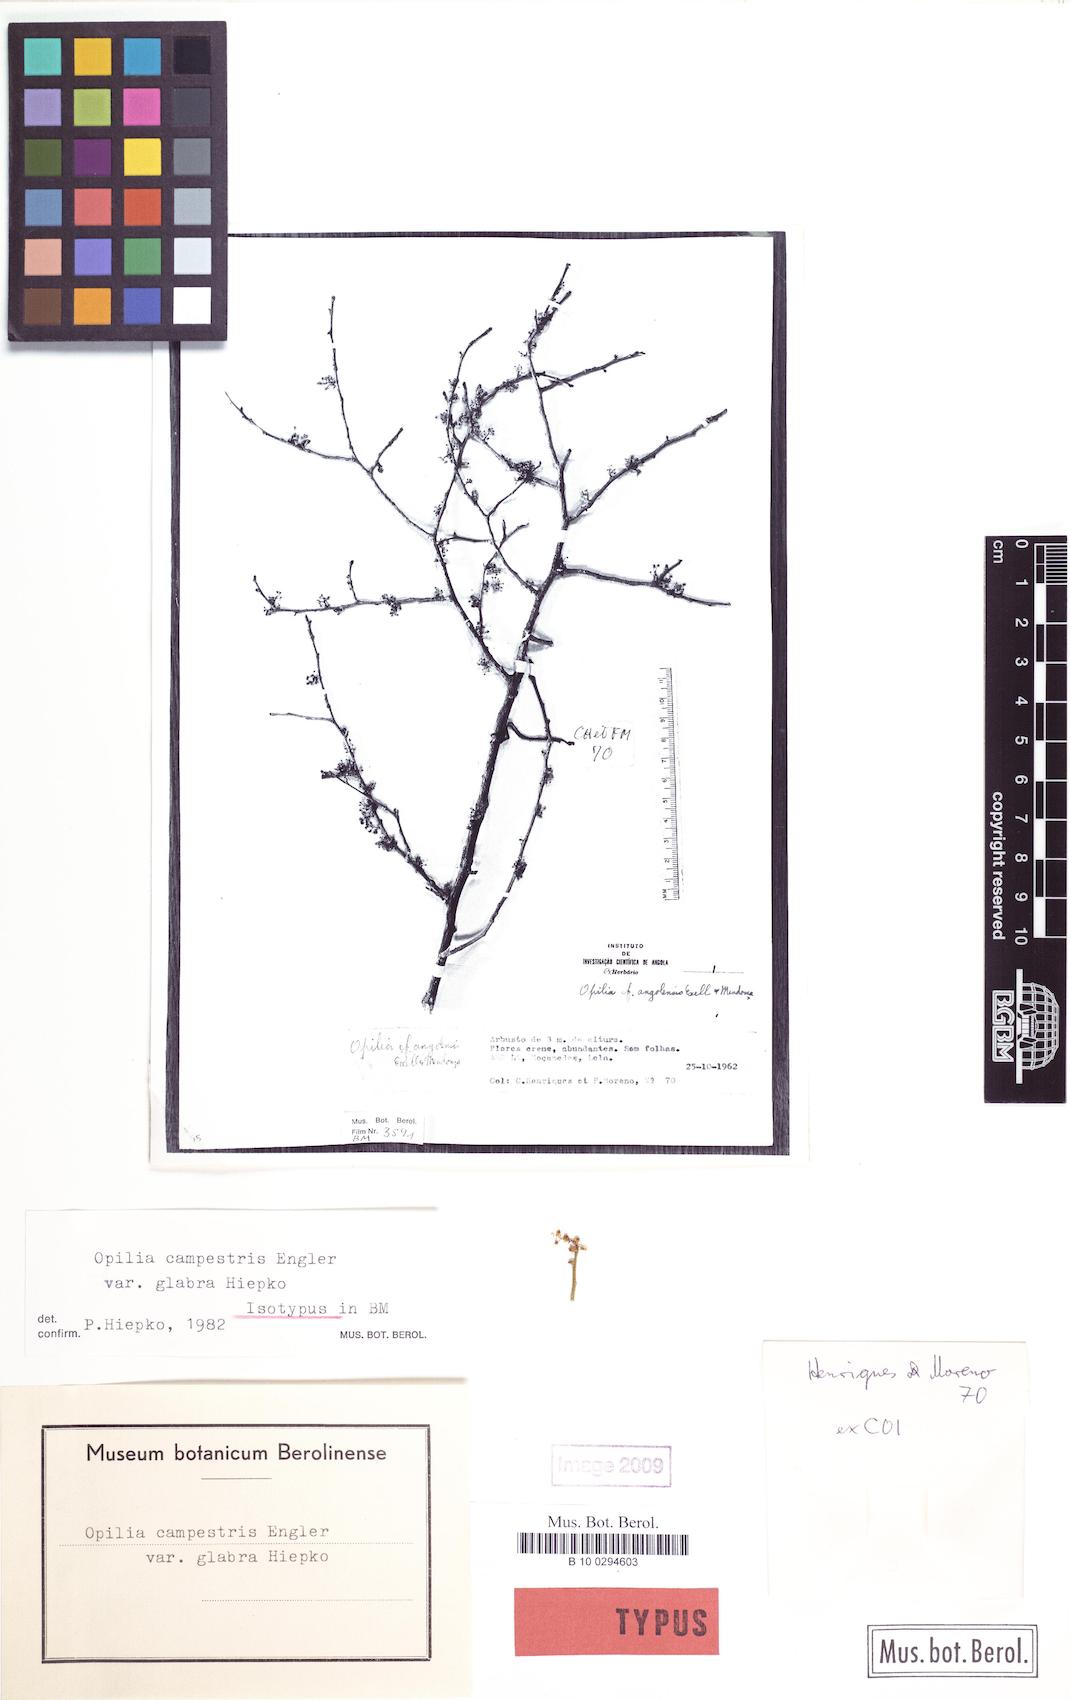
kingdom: Plantae
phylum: Tracheophyta
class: Magnoliopsida
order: Santalales
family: Opiliaceae
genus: Opilia
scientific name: Opilia campestris
